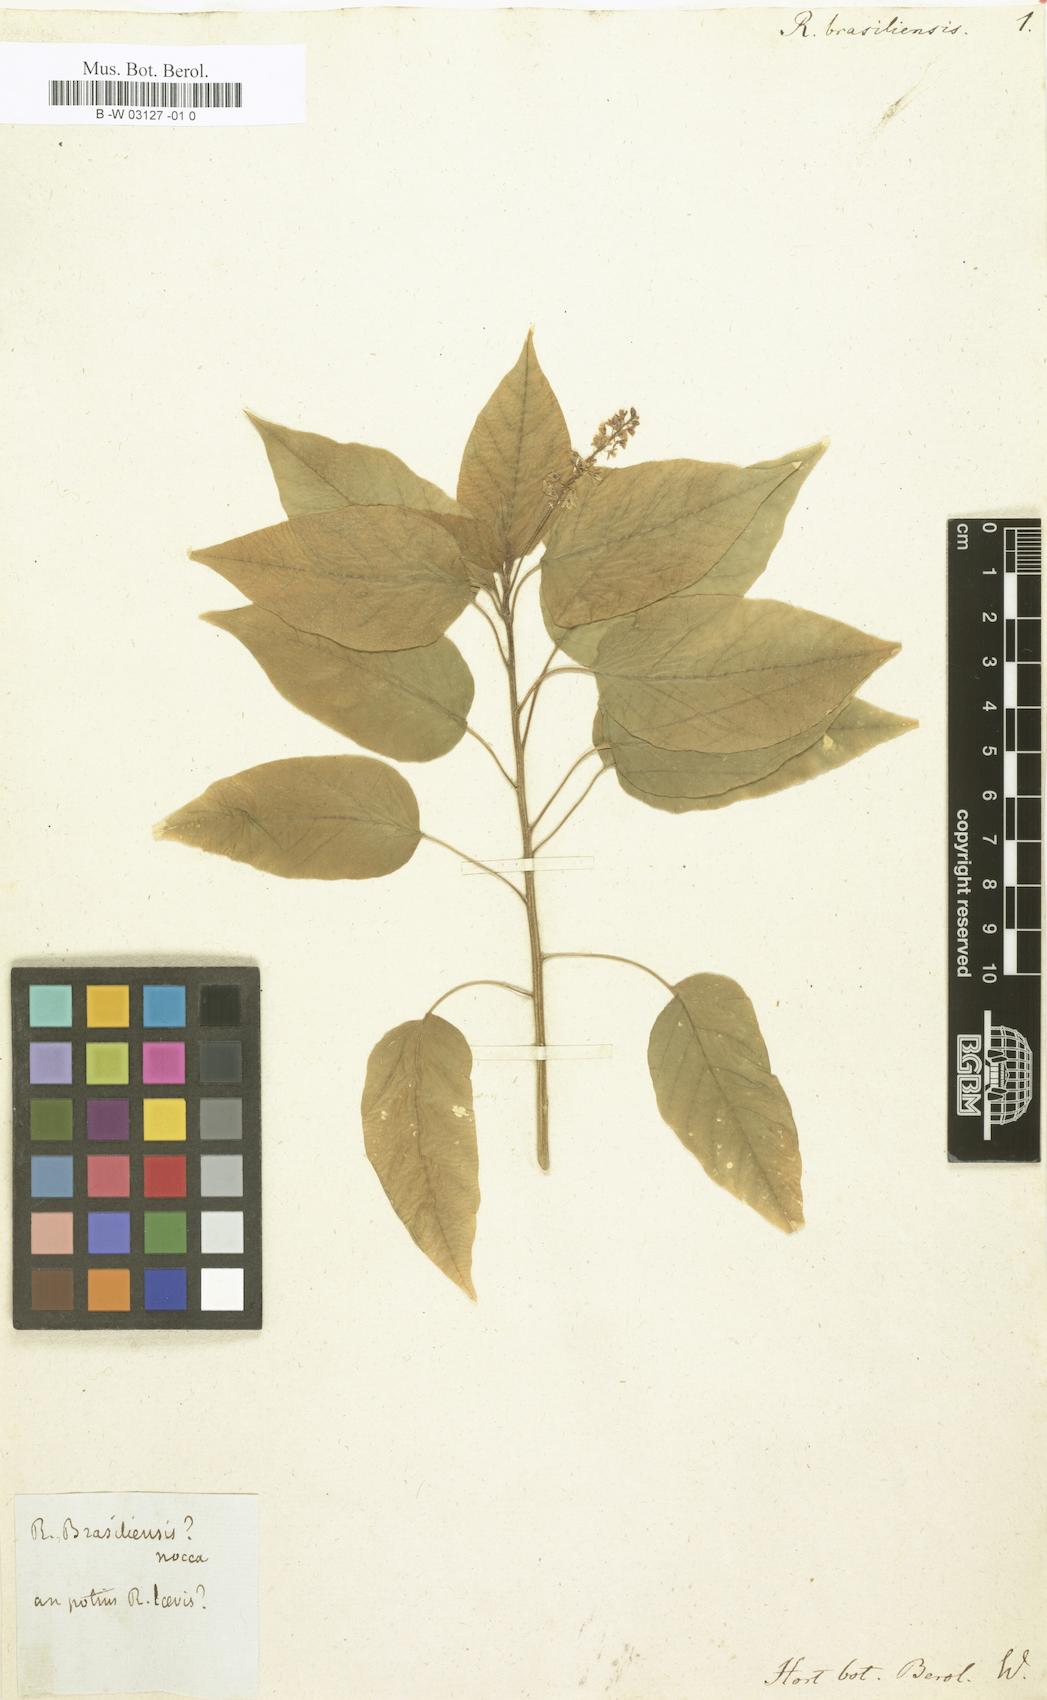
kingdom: Plantae
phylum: Tracheophyta
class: Magnoliopsida
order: Caryophyllales
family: Phytolaccaceae
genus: Rivina
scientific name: Rivina humilis
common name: Rougeplant
